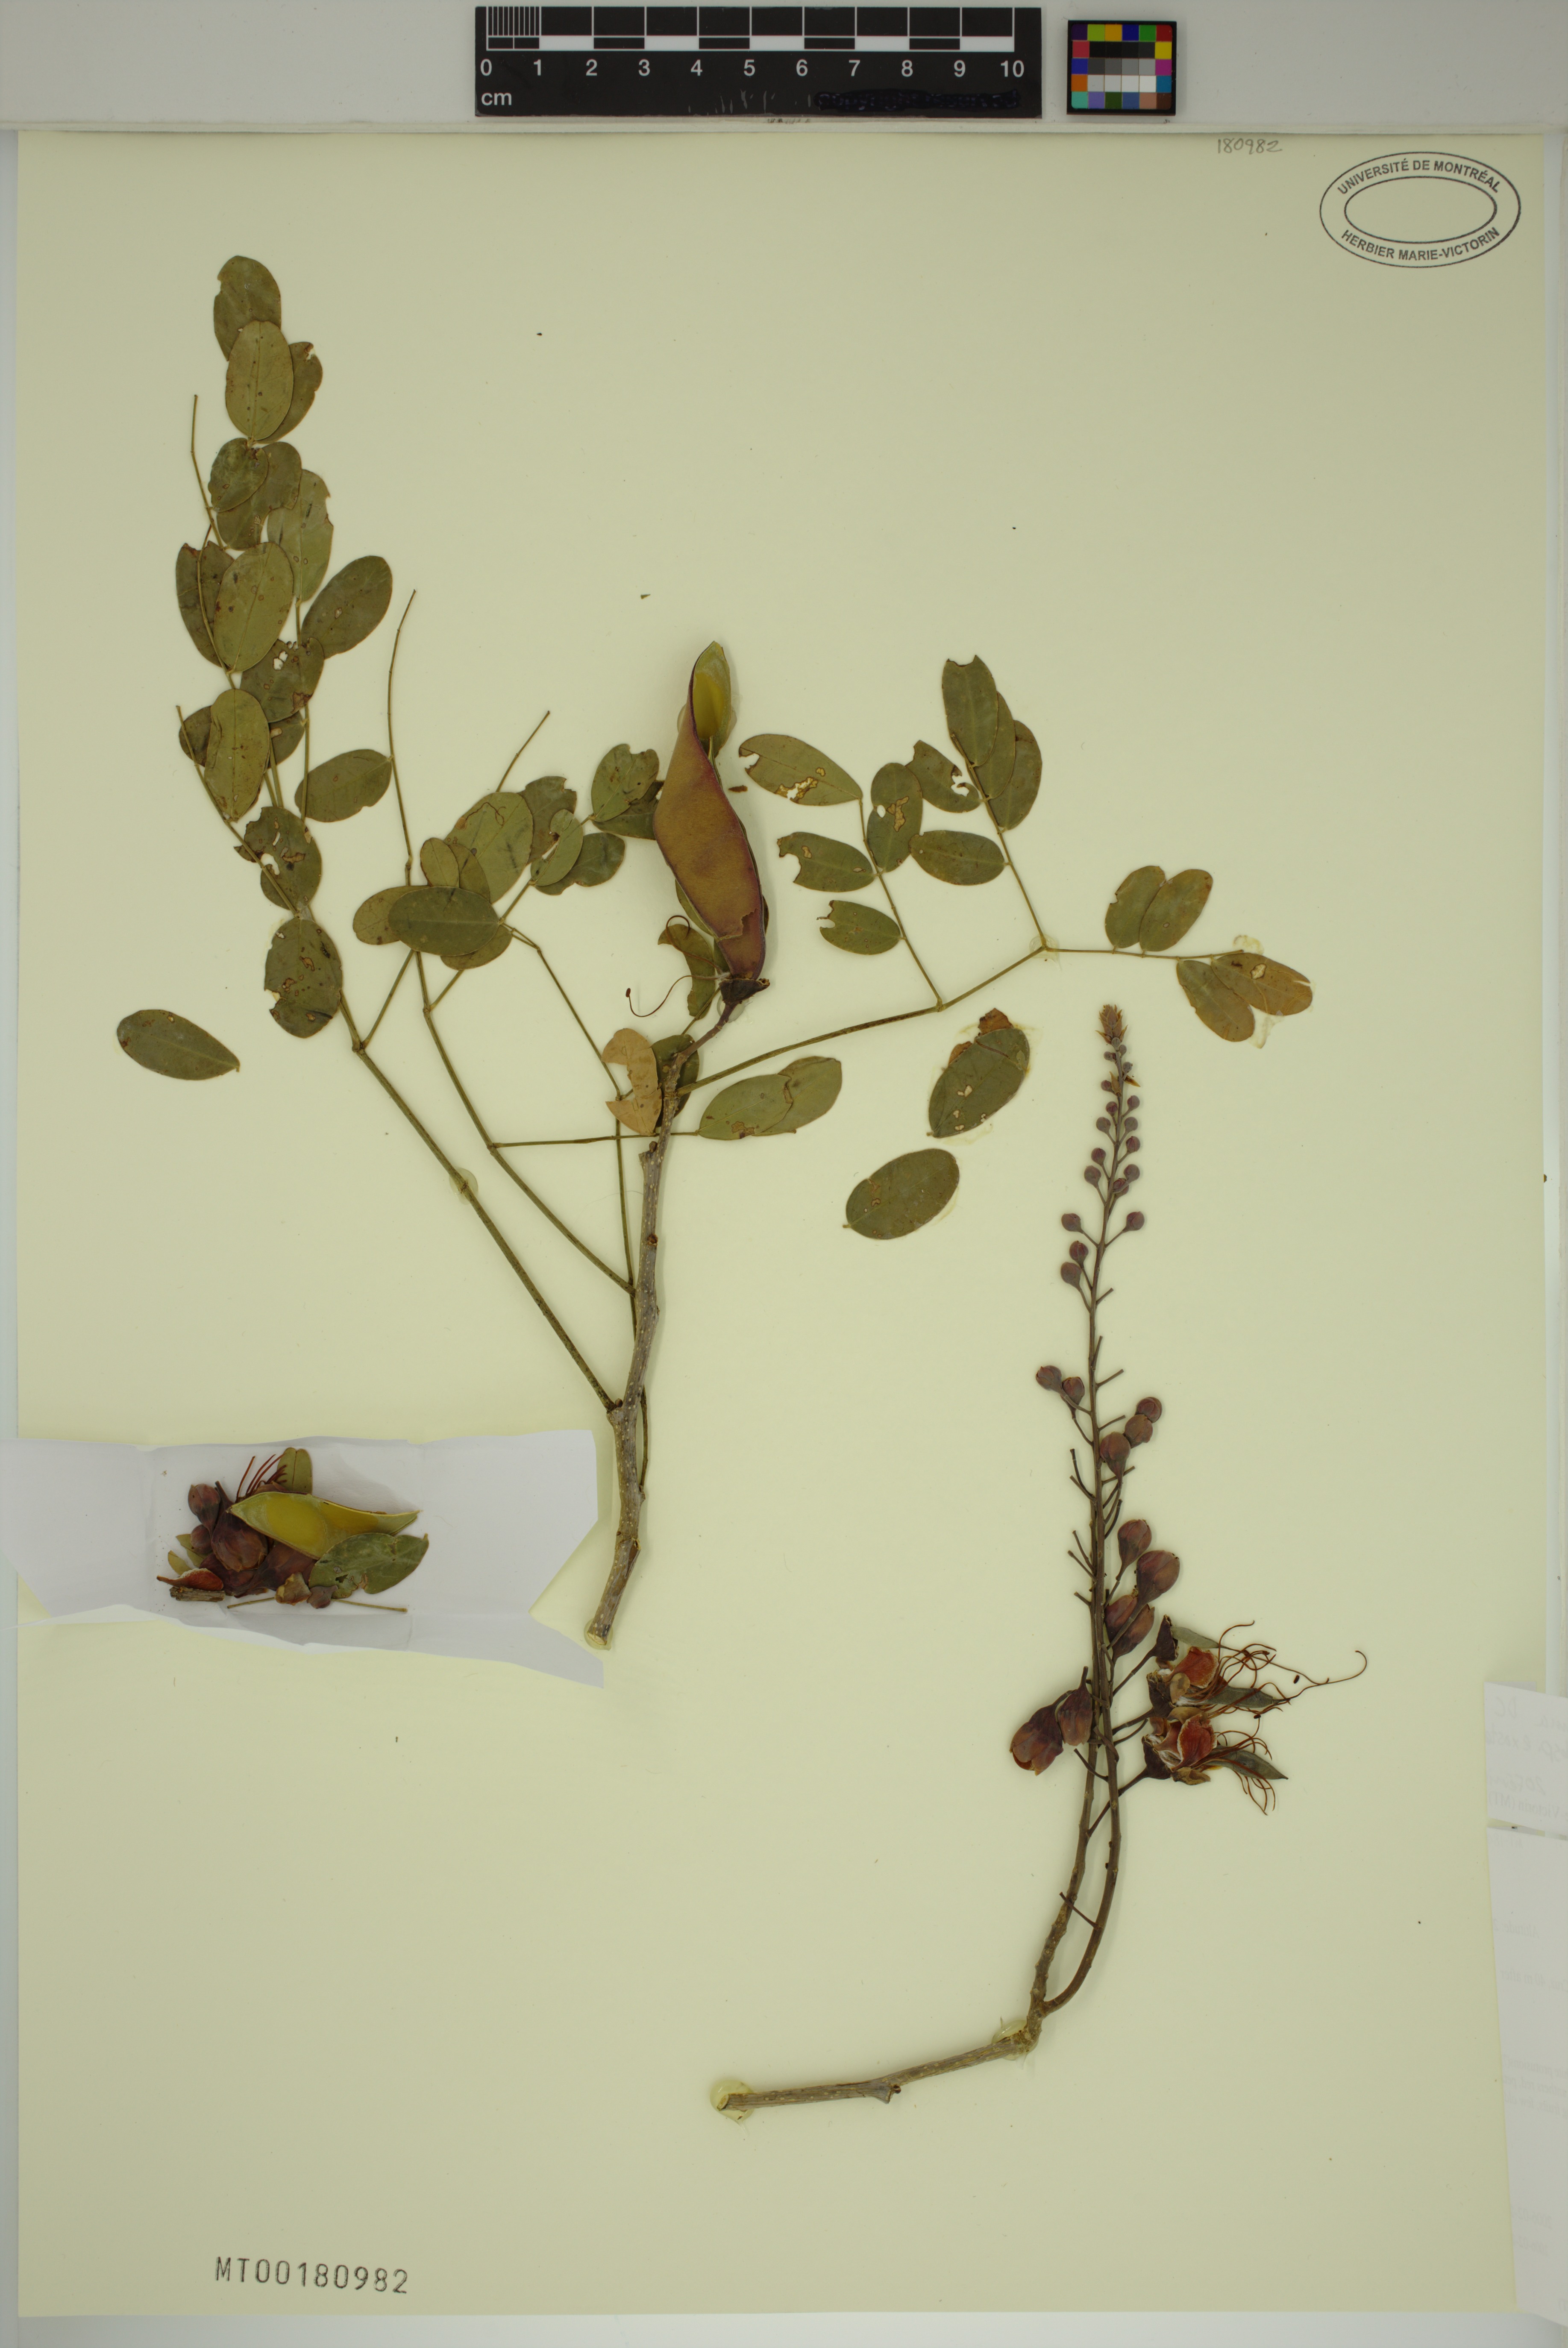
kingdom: Plantae
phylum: Tracheophyta
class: Magnoliopsida
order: Fabales
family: Fabaceae
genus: Erythrostemon
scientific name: Erythrostemon exostemma
